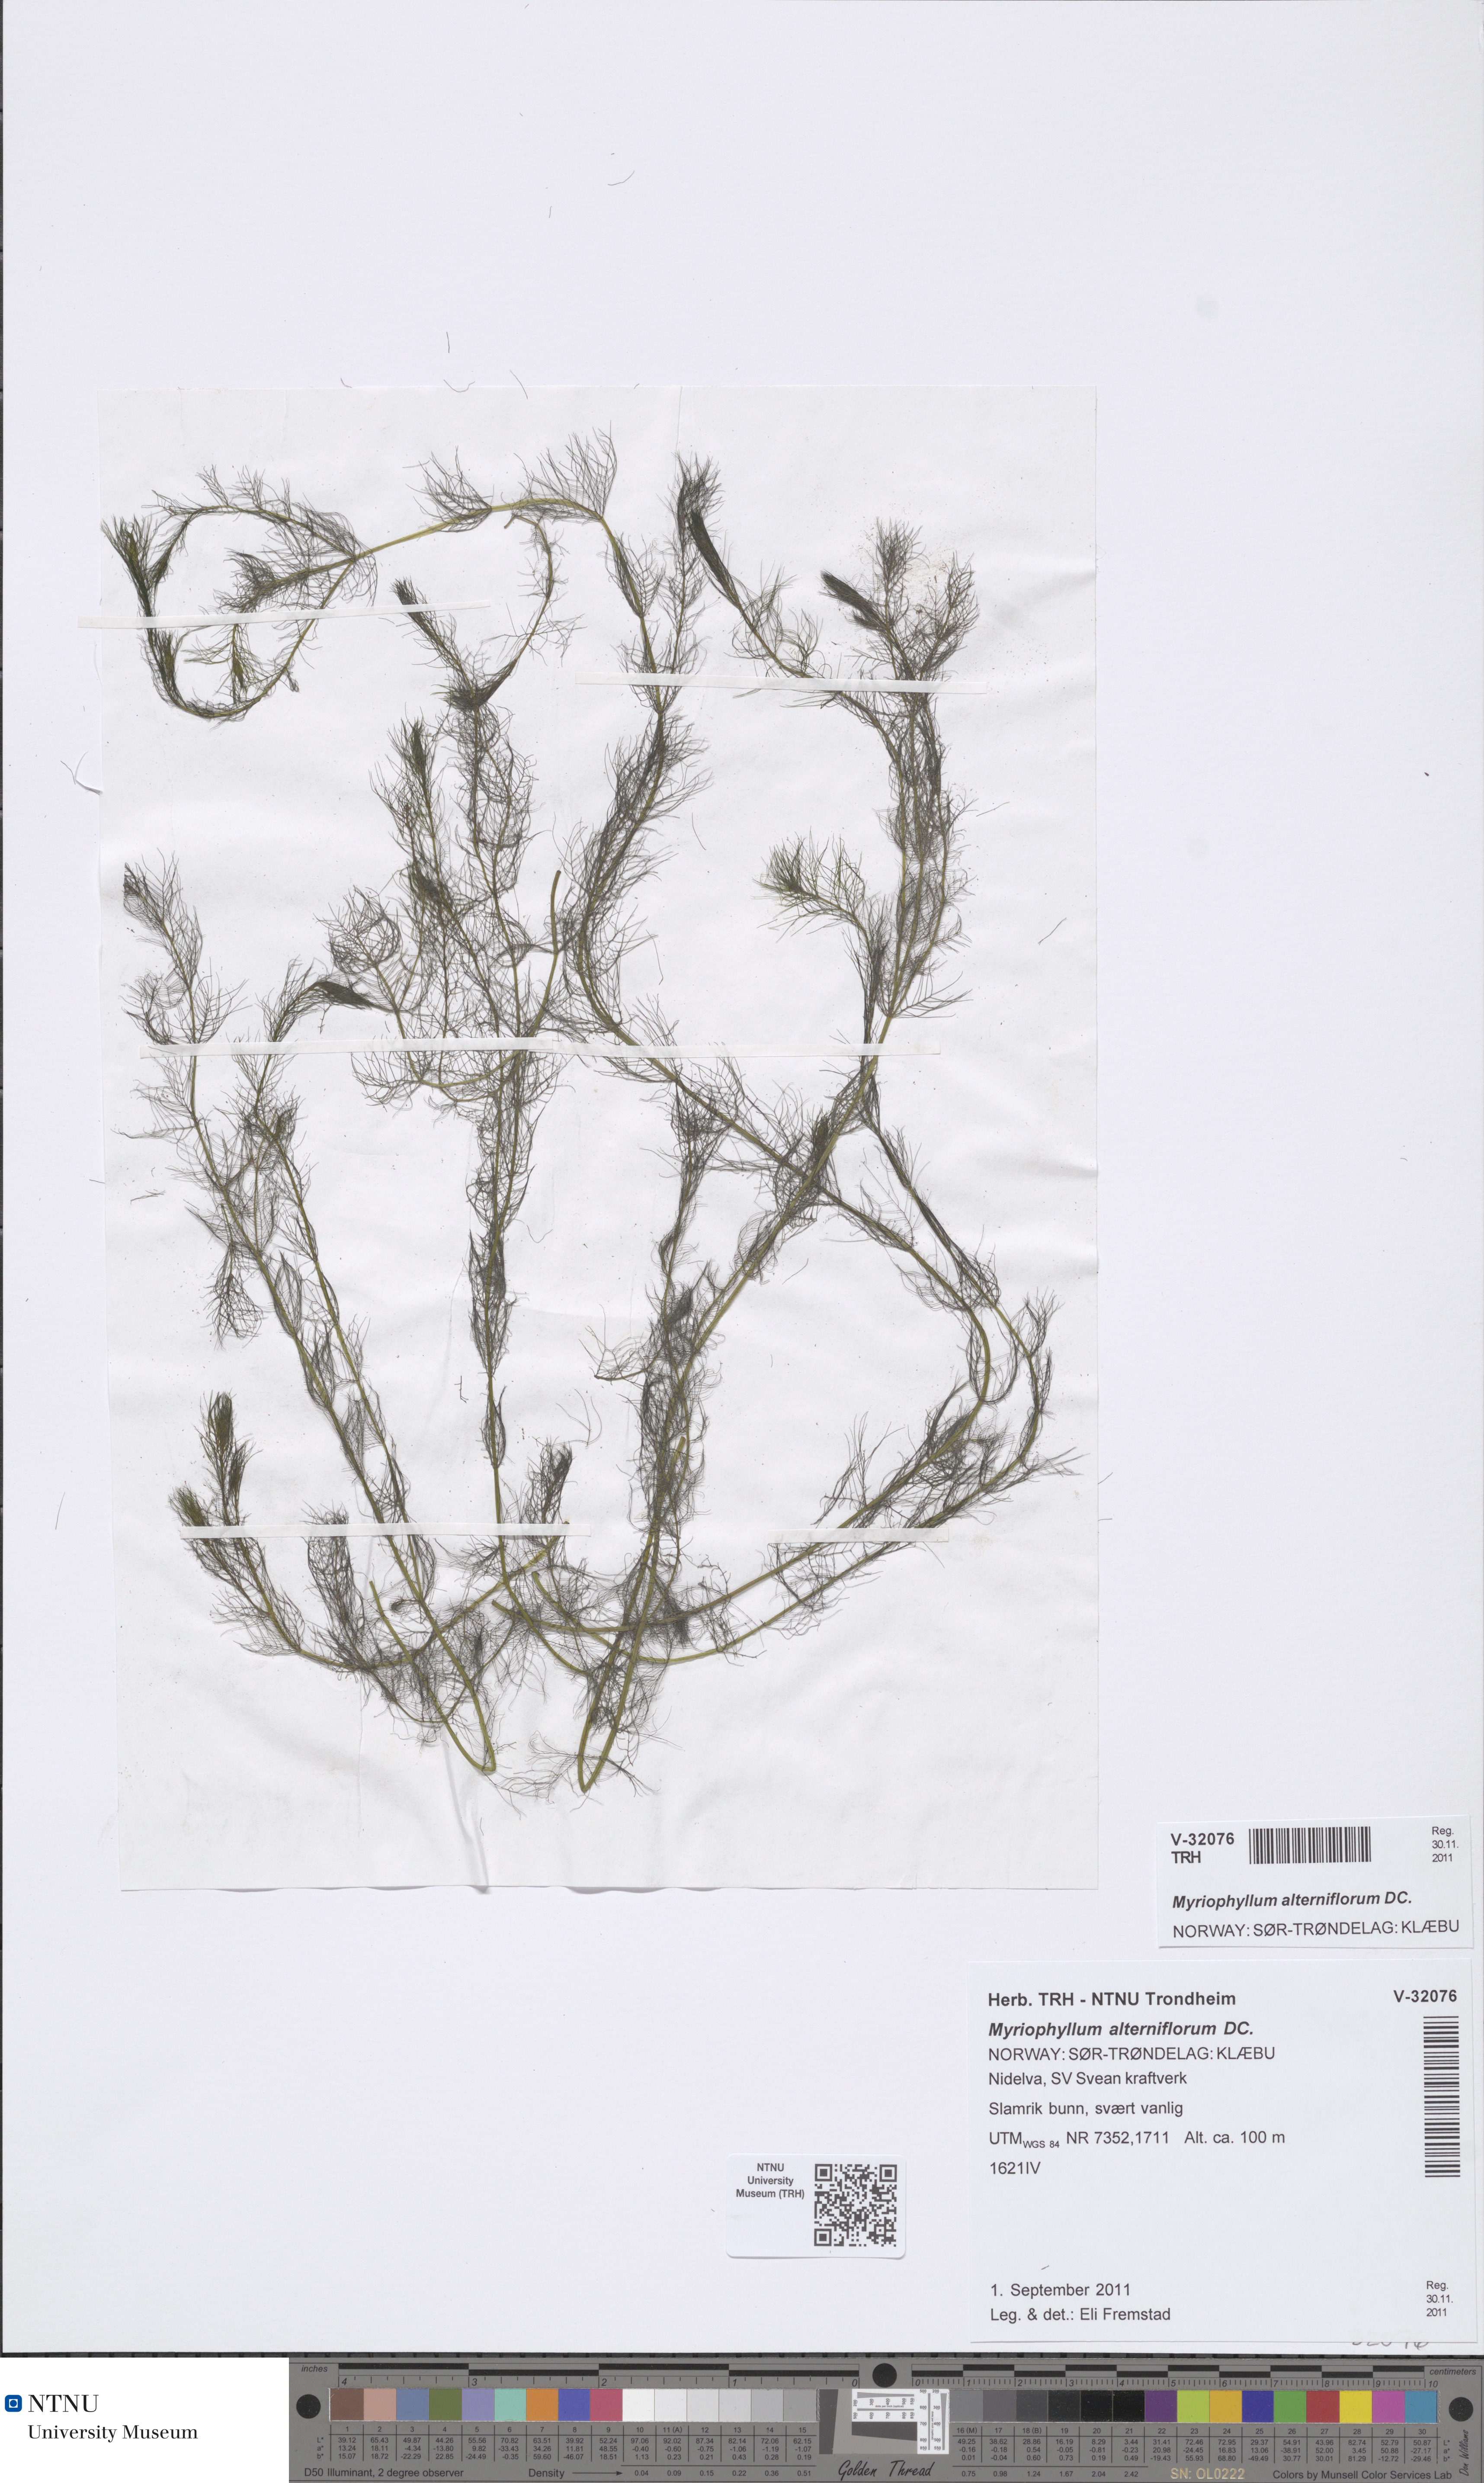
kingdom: Plantae
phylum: Tracheophyta
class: Magnoliopsida
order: Saxifragales
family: Haloragaceae
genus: Myriophyllum
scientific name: Myriophyllum alterniflorum
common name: Alternate water-milfoil
